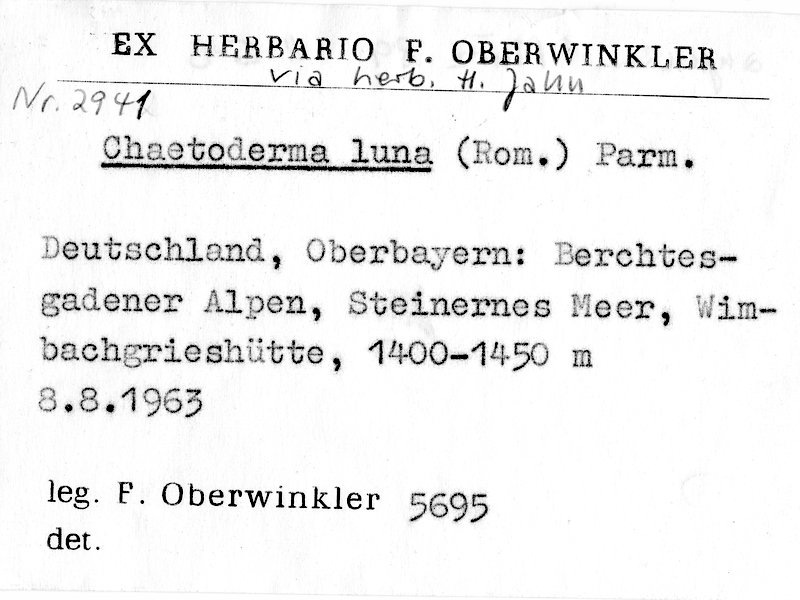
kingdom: Fungi
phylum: Basidiomycota
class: Agaricomycetes
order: Gloeophyllales
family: Gloeophyllaceae
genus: Chaetodermella
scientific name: Chaetodermella luna
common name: Crescent crust
